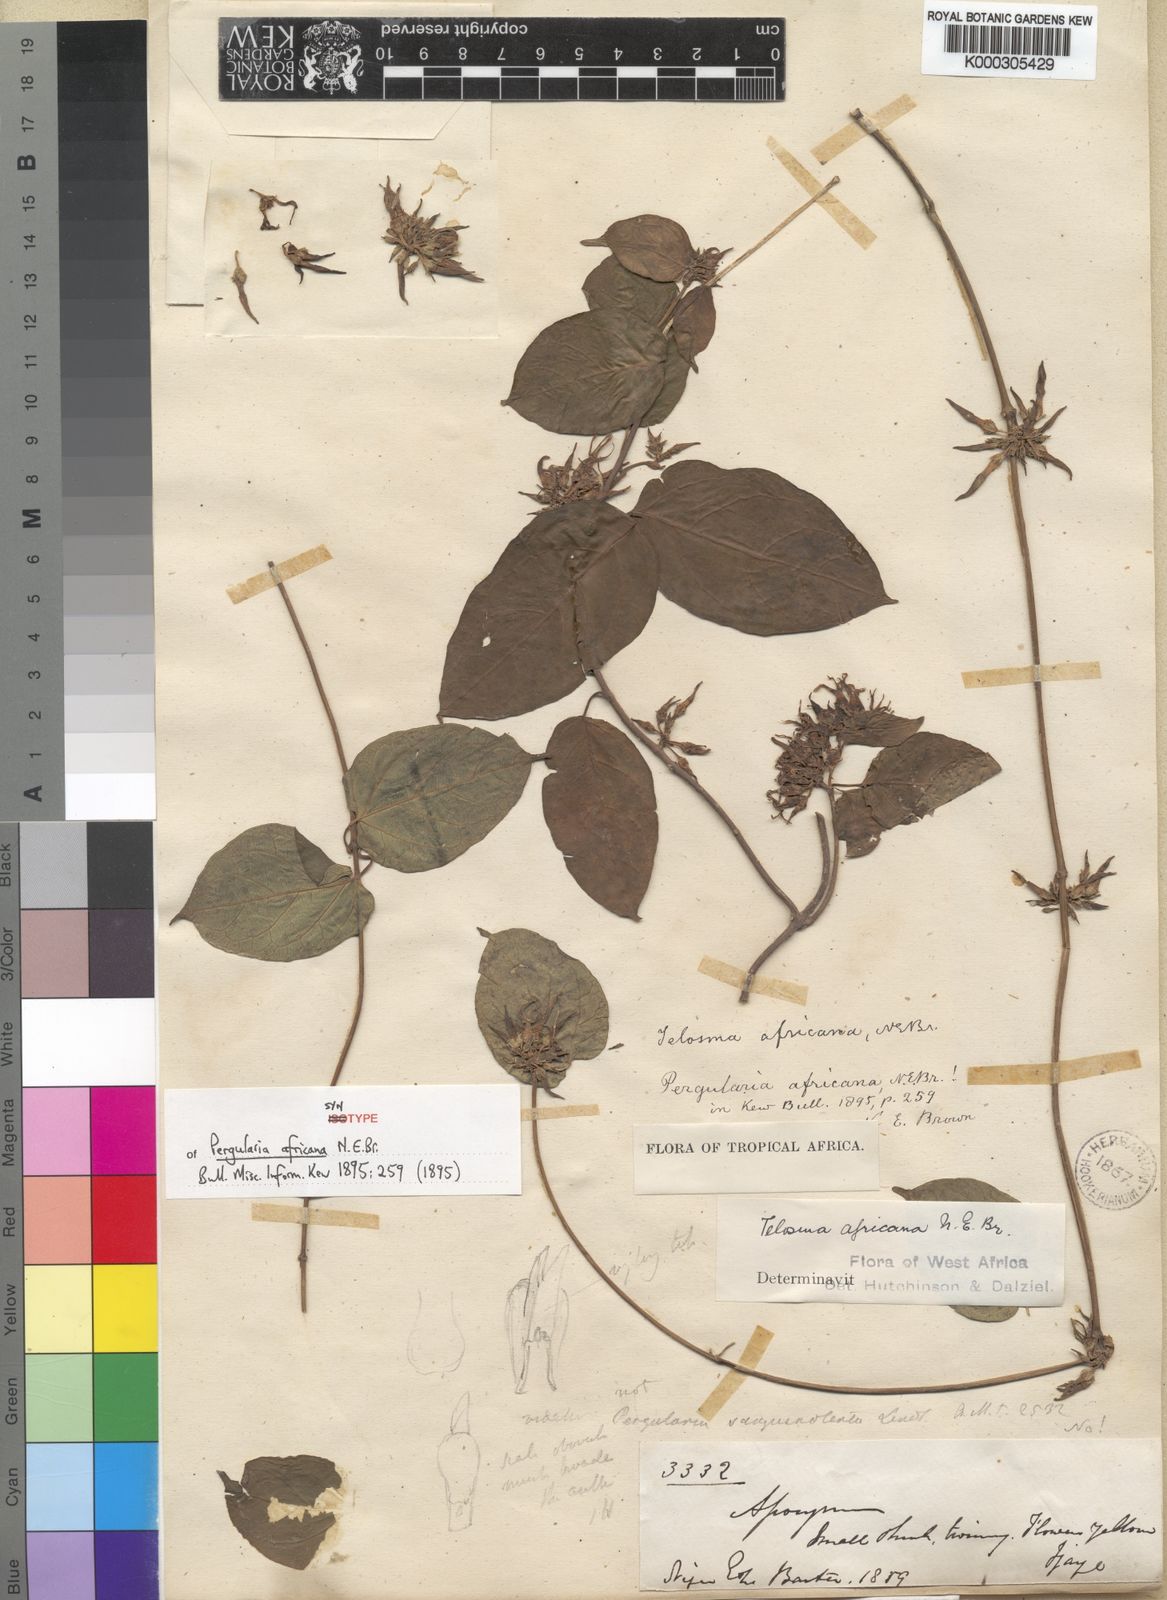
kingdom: Plantae
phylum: Tracheophyta
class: Magnoliopsida
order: Gentianales
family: Apocynaceae
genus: Telosma
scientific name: Telosma africana
